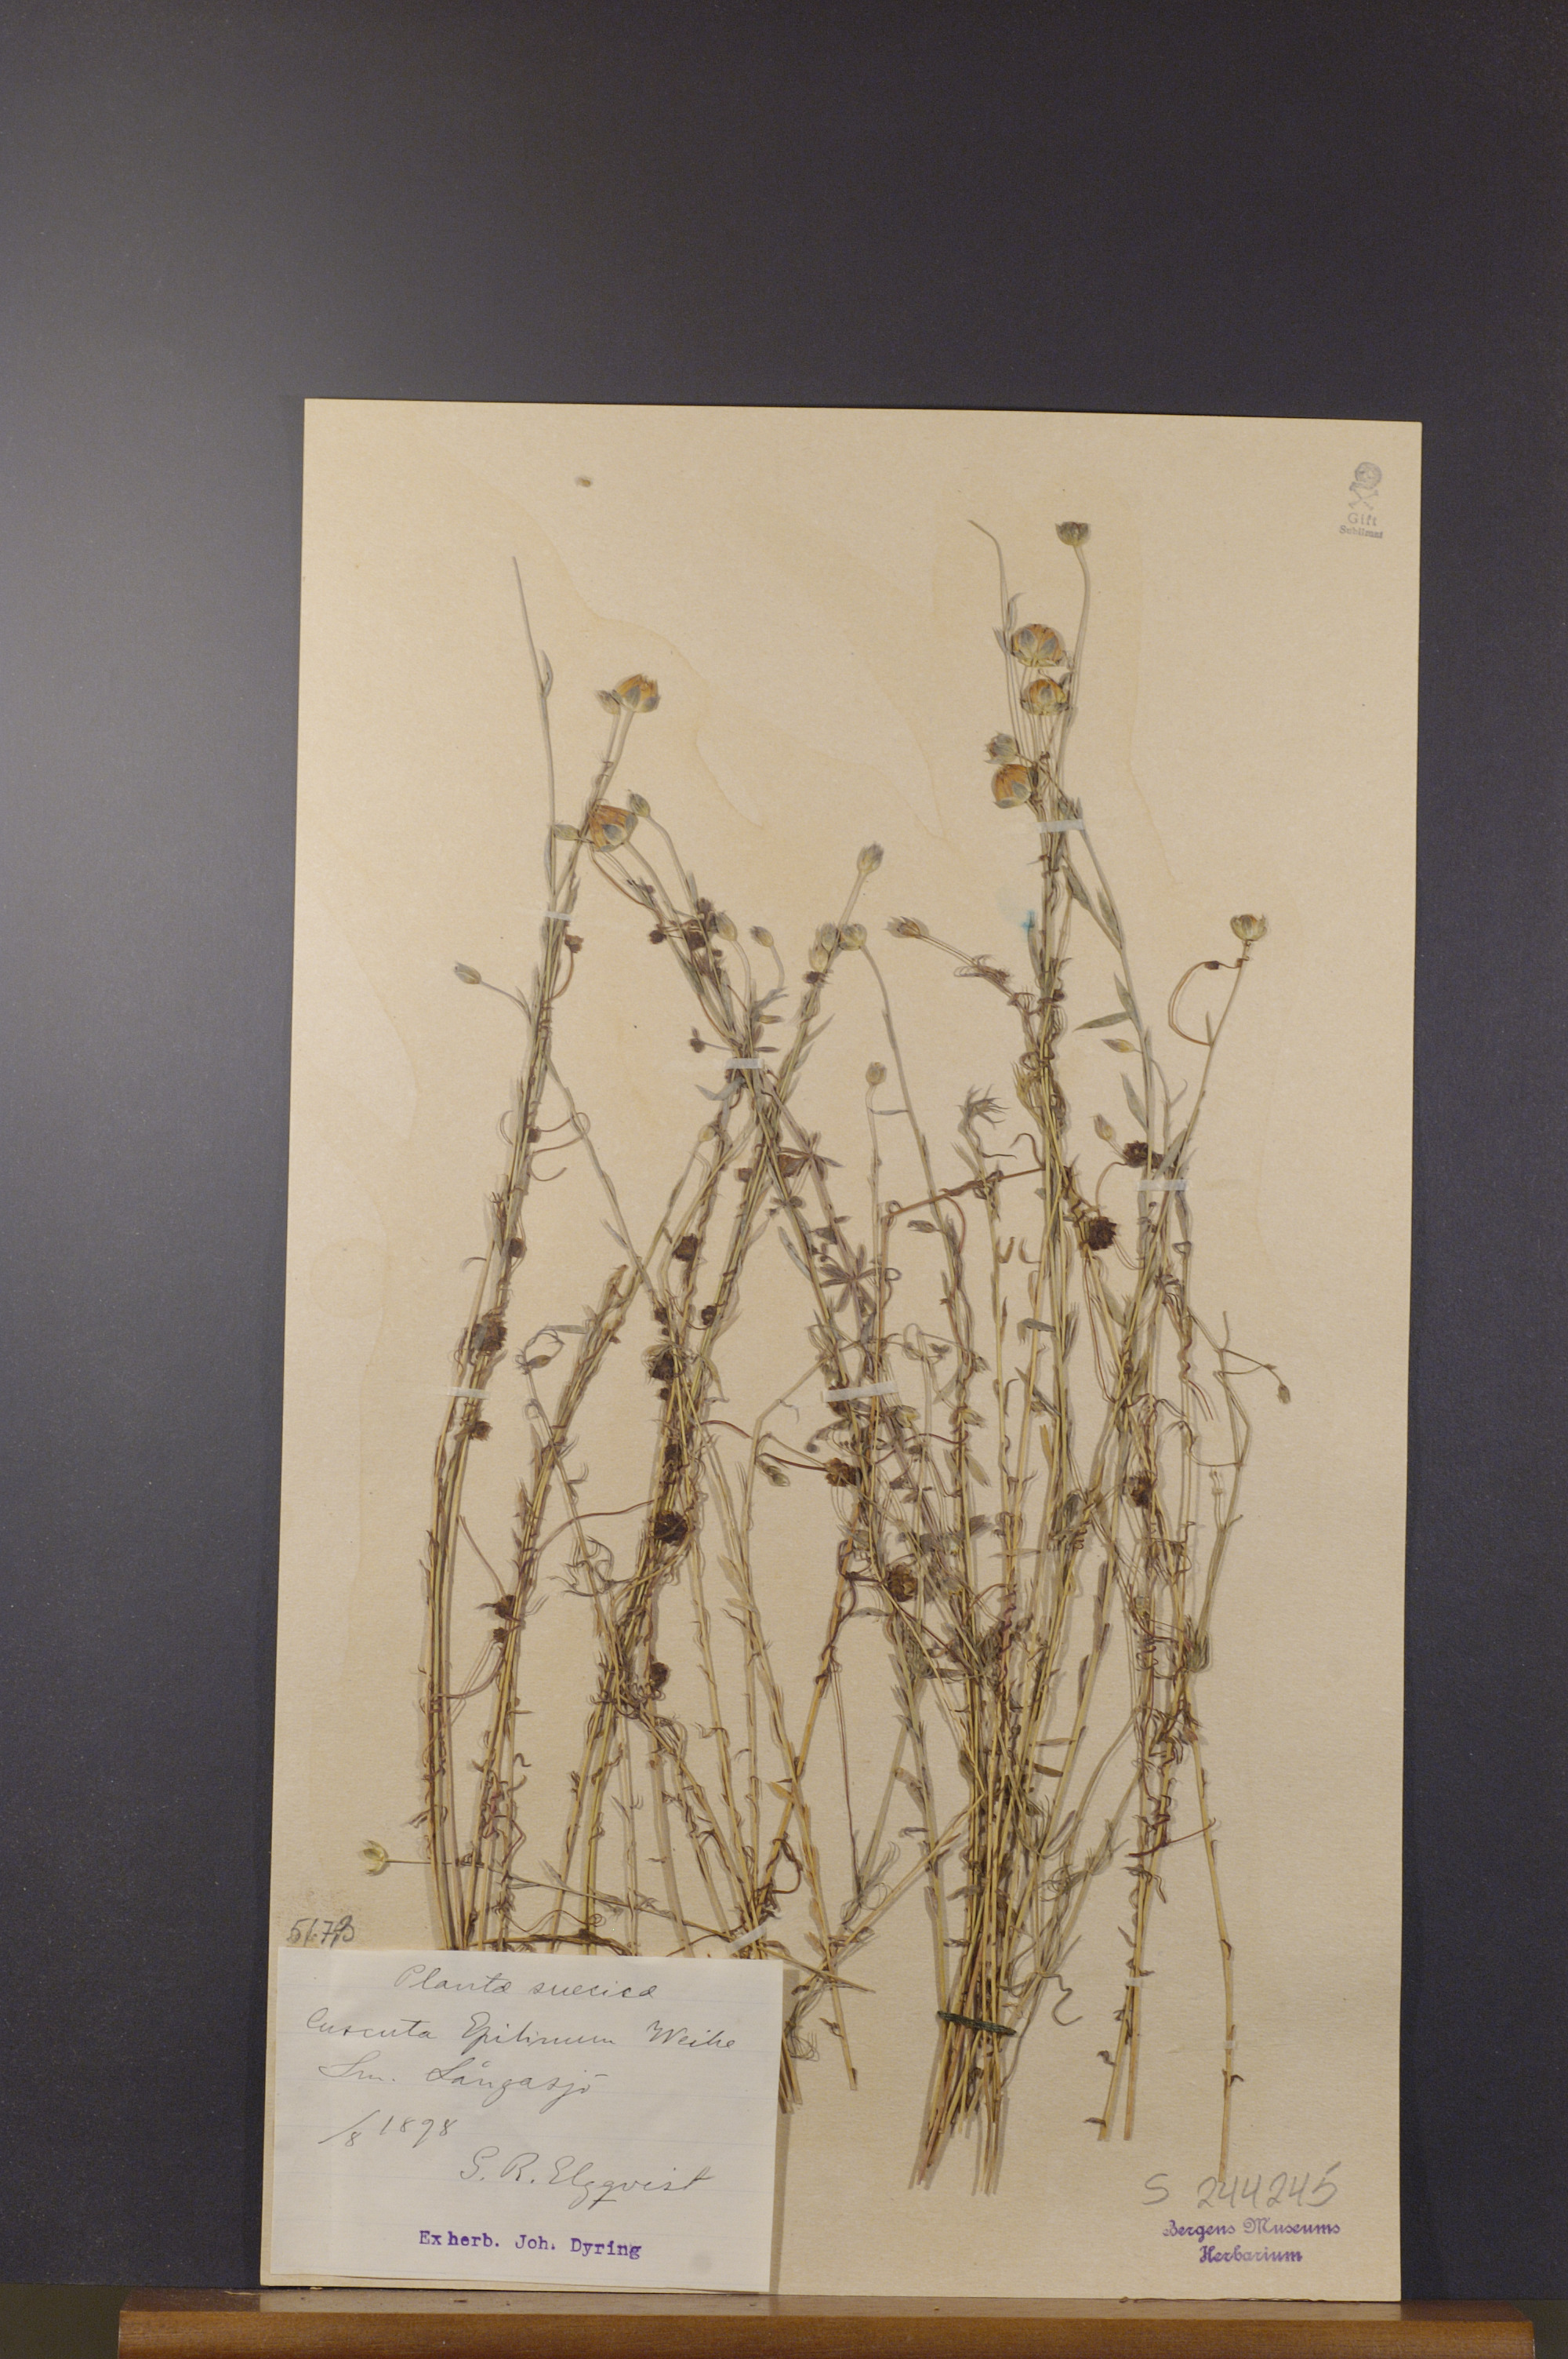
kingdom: Plantae
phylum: Tracheophyta
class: Magnoliopsida
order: Solanales
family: Convolvulaceae
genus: Cuscuta
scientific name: Cuscuta epilinum
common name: Flax dodder
